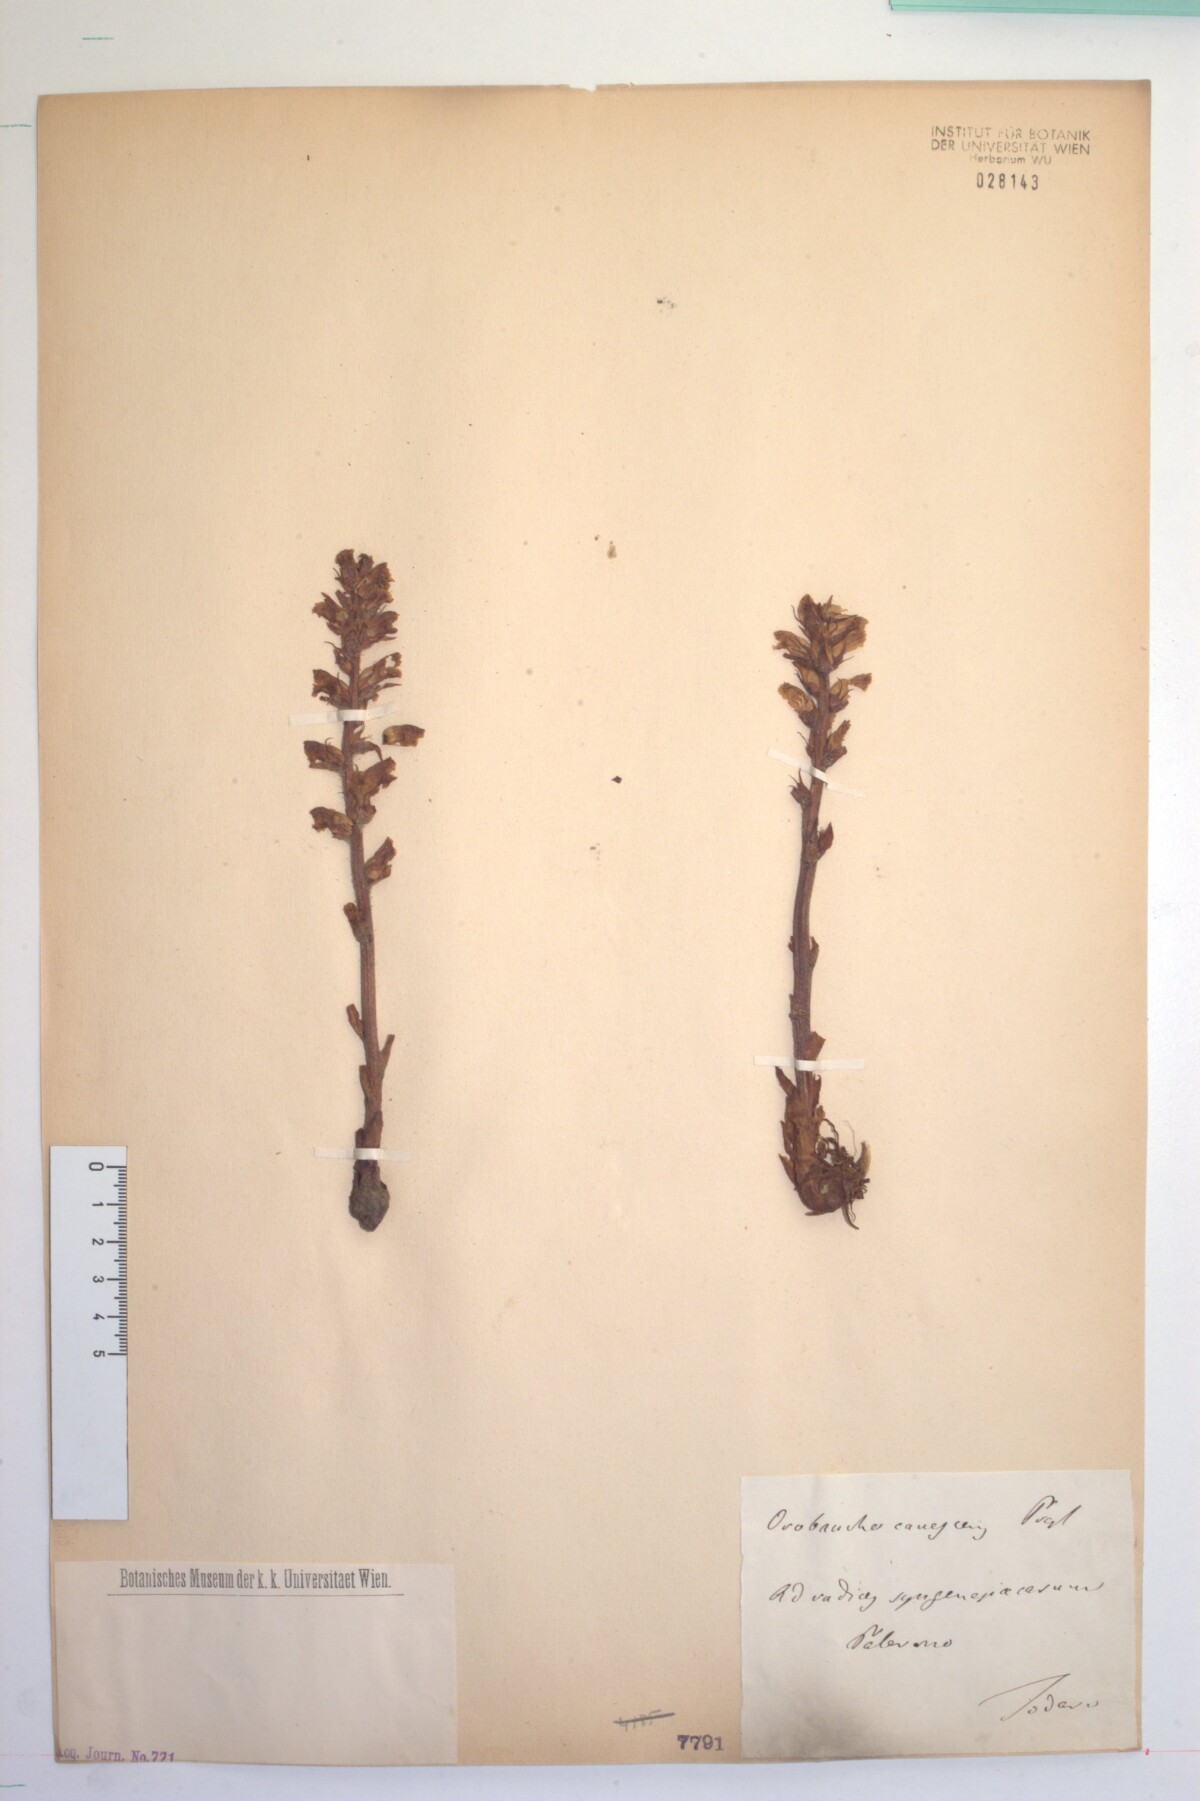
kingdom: Plantae
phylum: Tracheophyta
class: Magnoliopsida
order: Lamiales
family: Orobanchaceae
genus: Orobanche
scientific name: Orobanche canescens
